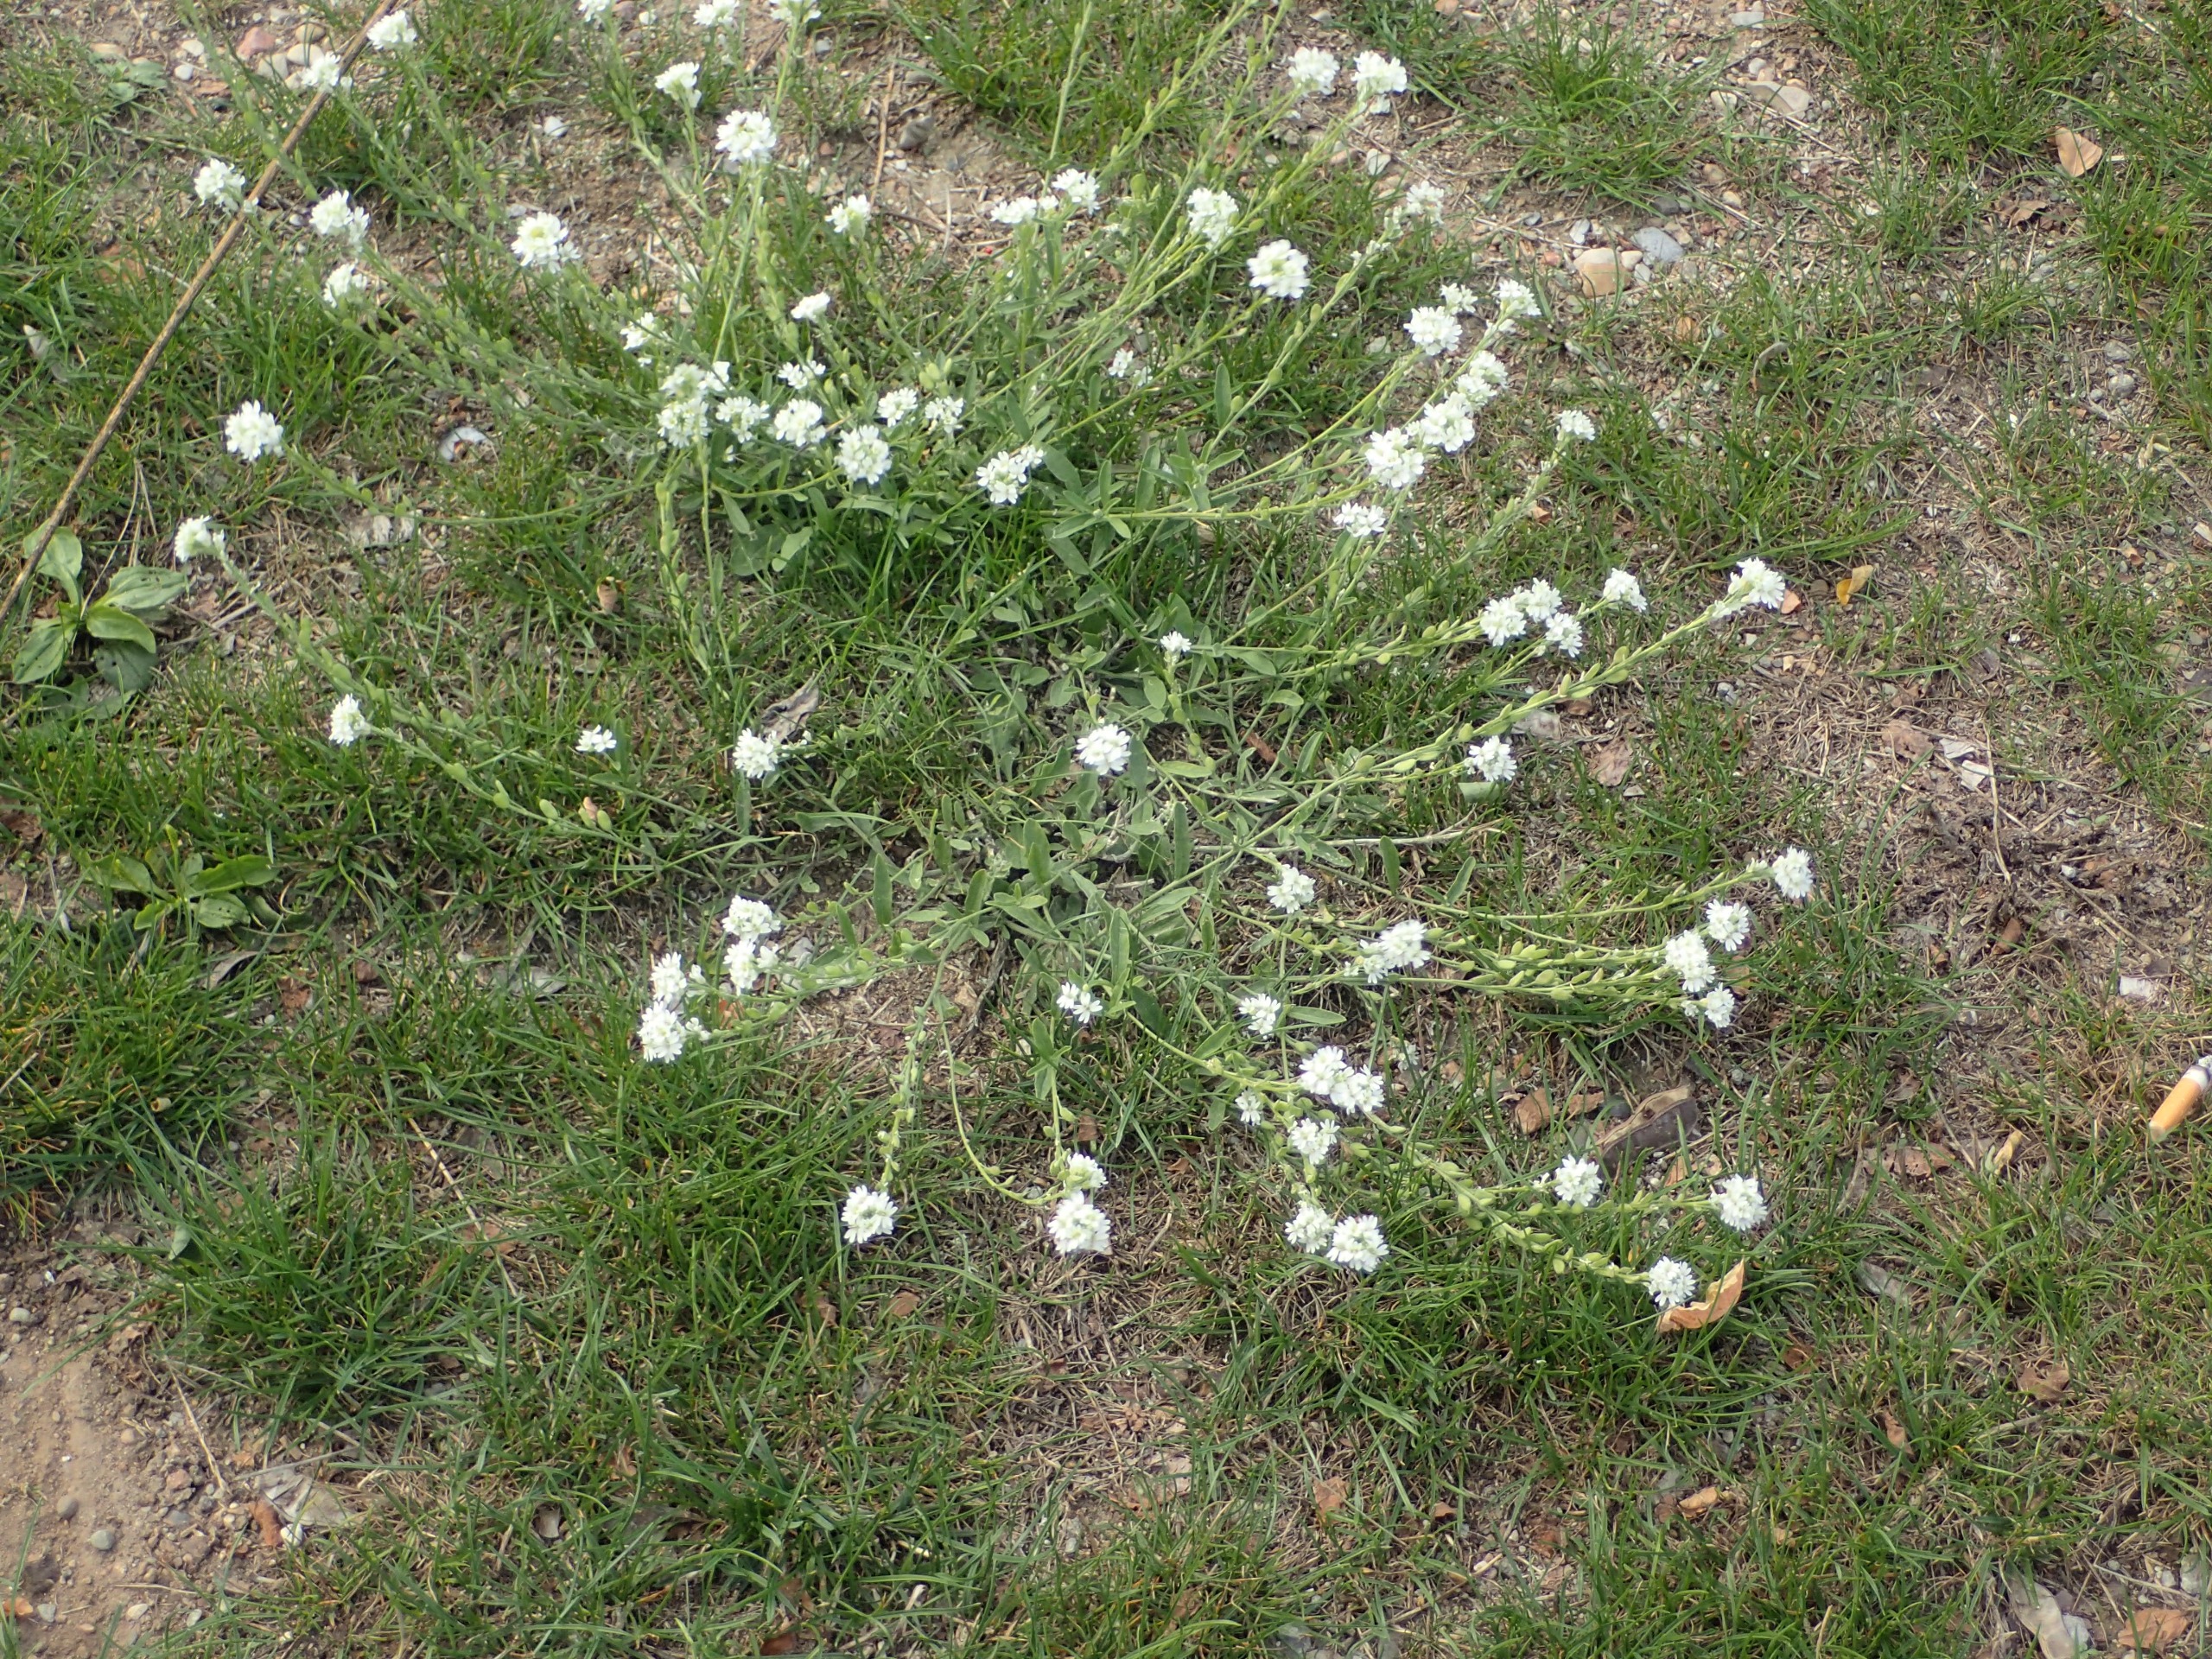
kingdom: Plantae
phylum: Tracheophyta
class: Magnoliopsida
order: Brassicales
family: Brassicaceae
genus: Berteroa
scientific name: Berteroa incana
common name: Kløvplade
